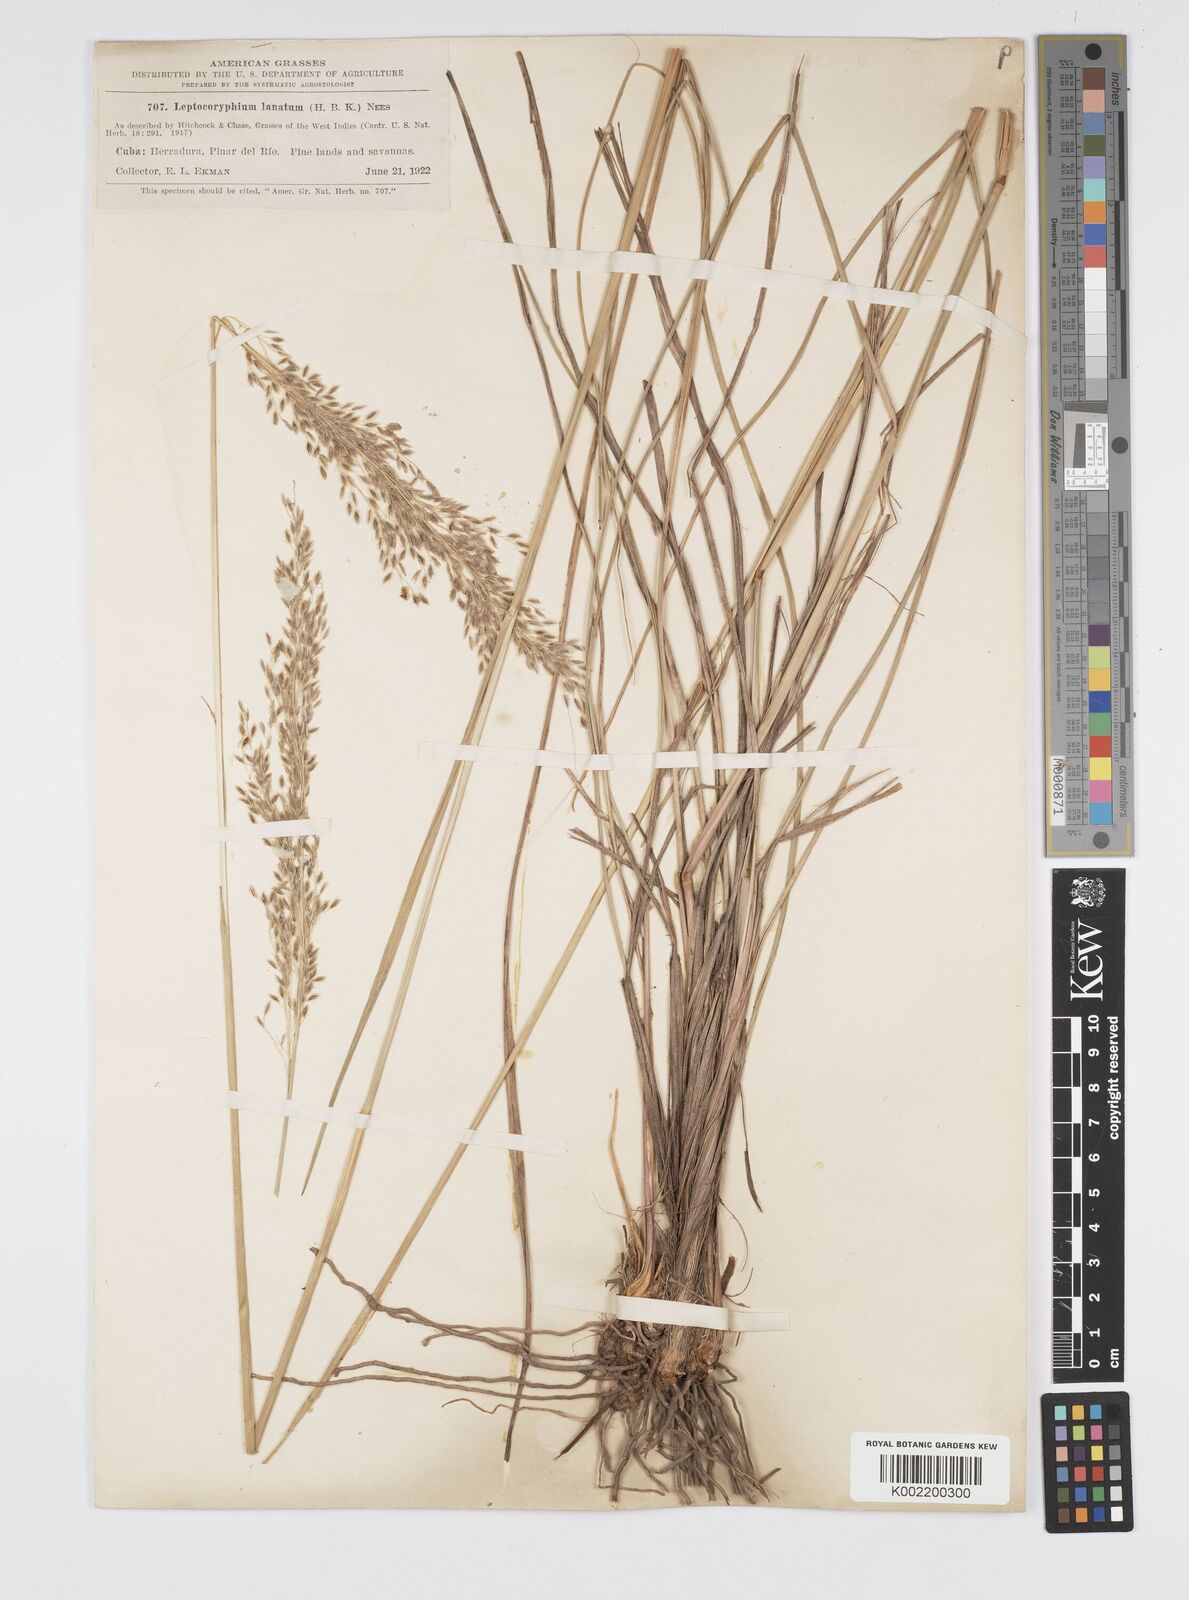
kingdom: Plantae
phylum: Tracheophyta
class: Liliopsida
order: Poales
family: Poaceae
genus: Anthenantia
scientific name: Anthenantia lanata
